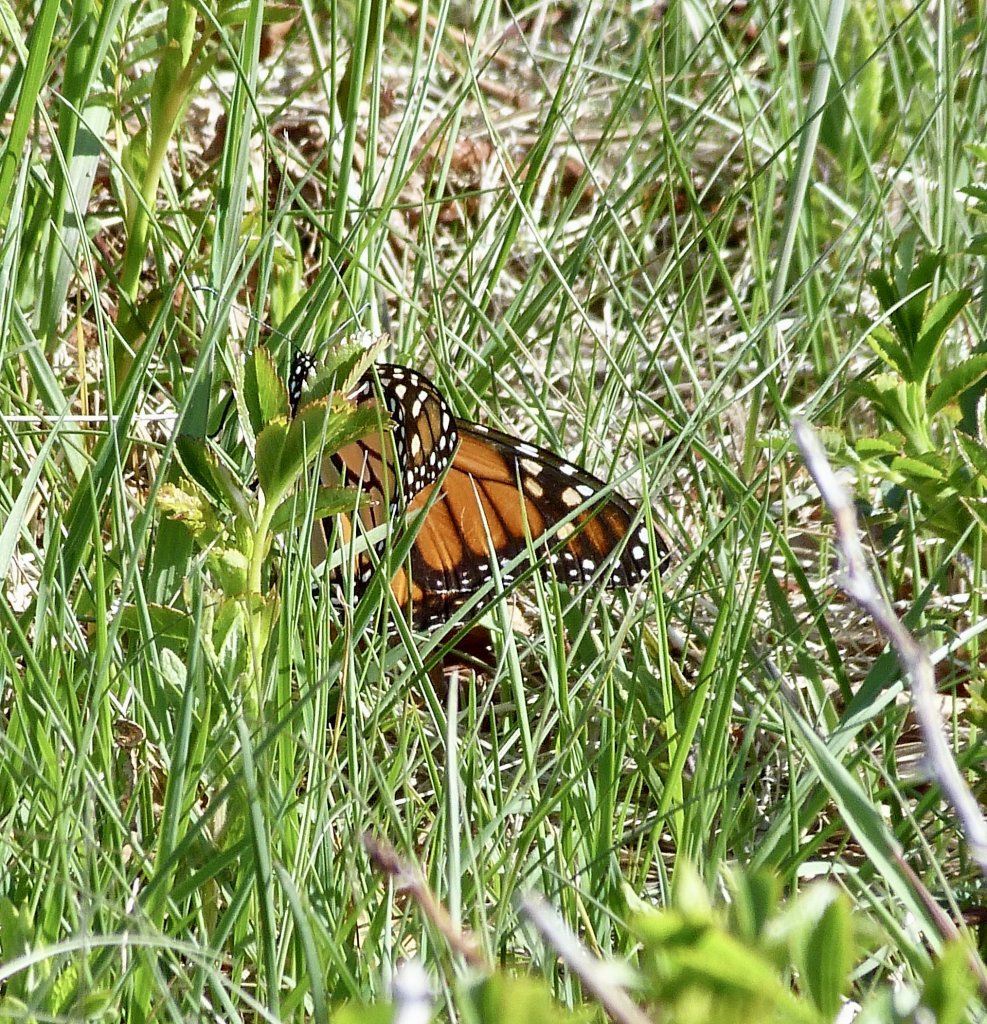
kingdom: Animalia
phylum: Arthropoda
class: Insecta
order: Lepidoptera
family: Nymphalidae
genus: Danaus
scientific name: Danaus plexippus
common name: Monarch
